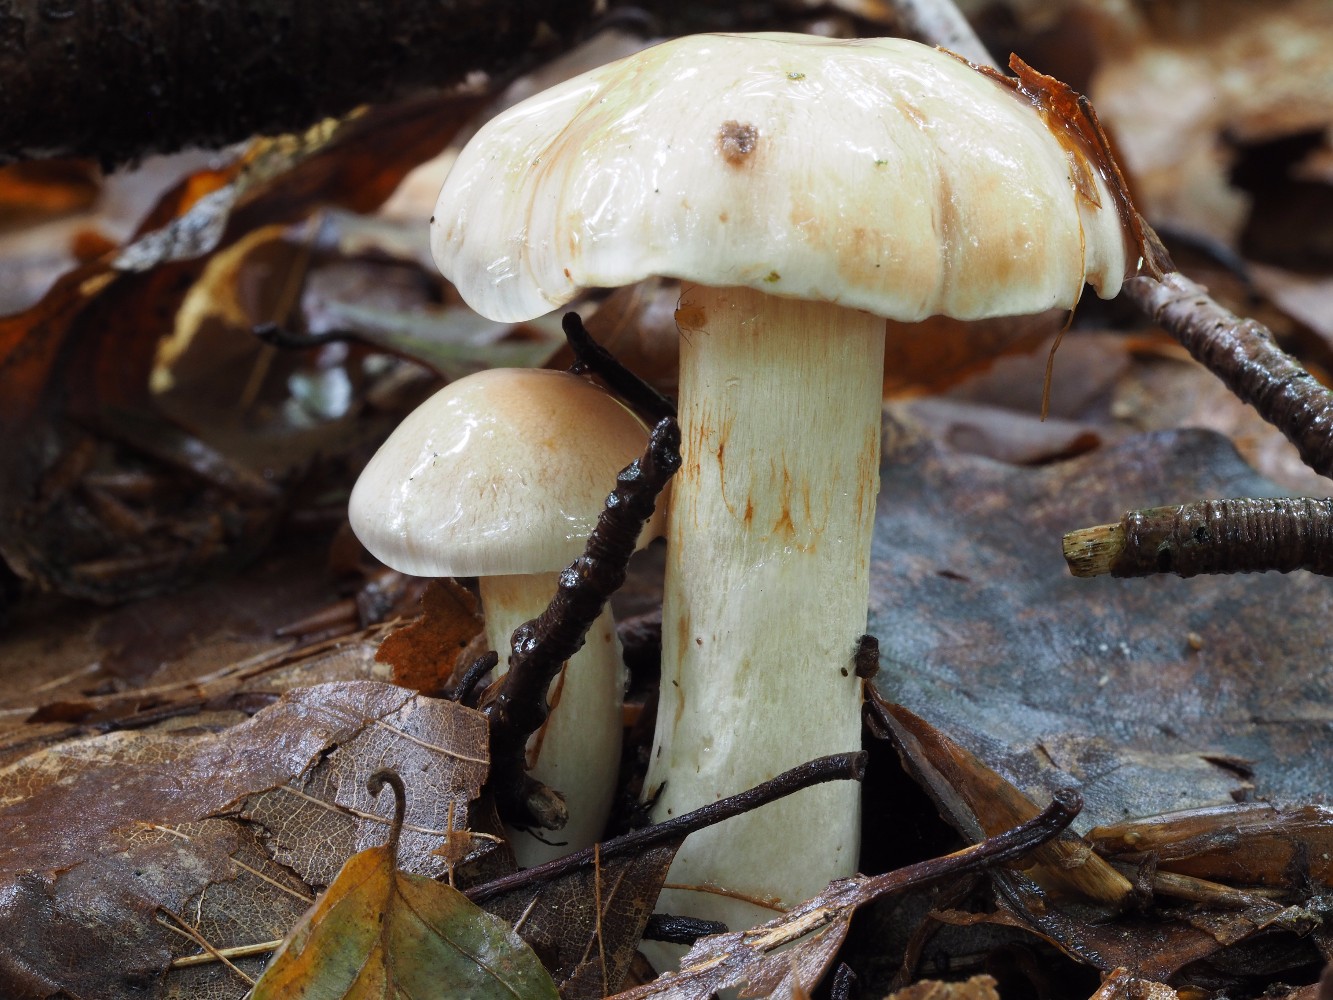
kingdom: Fungi
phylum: Basidiomycota
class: Agaricomycetes
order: Agaricales
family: Cortinariaceae
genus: Thaxterogaster
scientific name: Thaxterogaster barbatus
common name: elfenbens-slørhat
